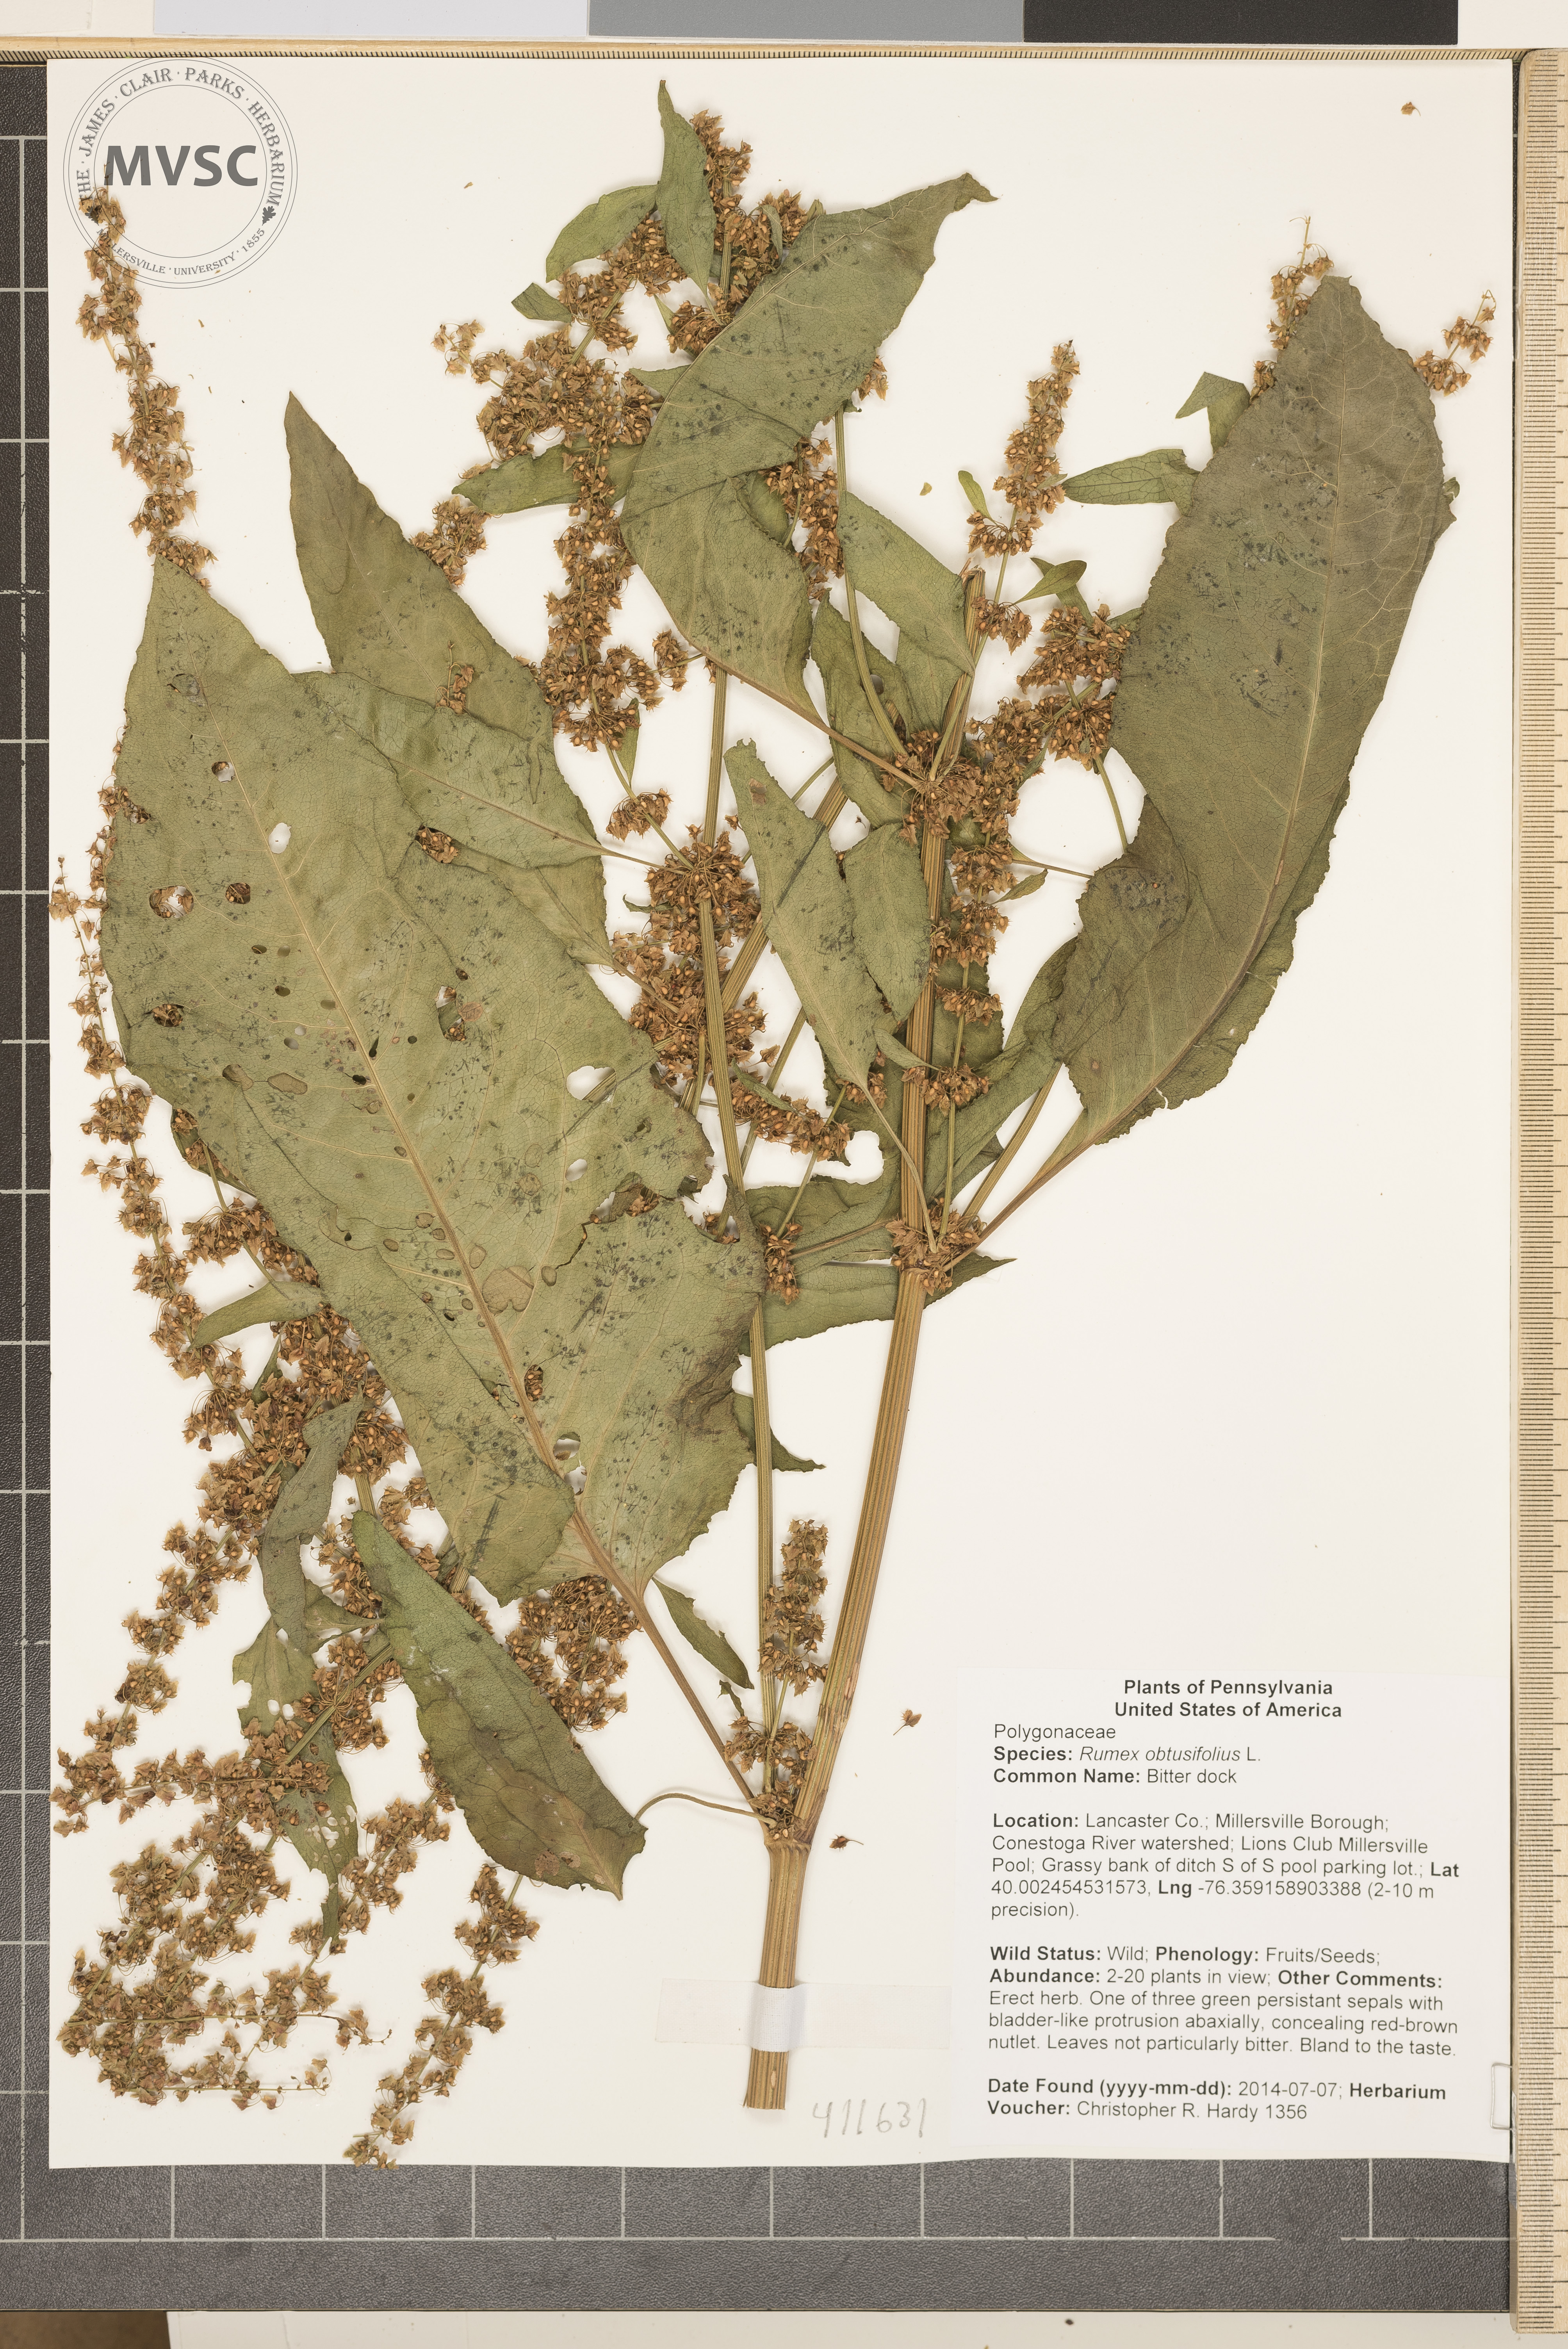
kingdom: Plantae
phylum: Tracheophyta
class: Magnoliopsida
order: Caryophyllales
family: Polygonaceae
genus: Rumex
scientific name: Rumex obtusifolius
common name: Bitter dock
